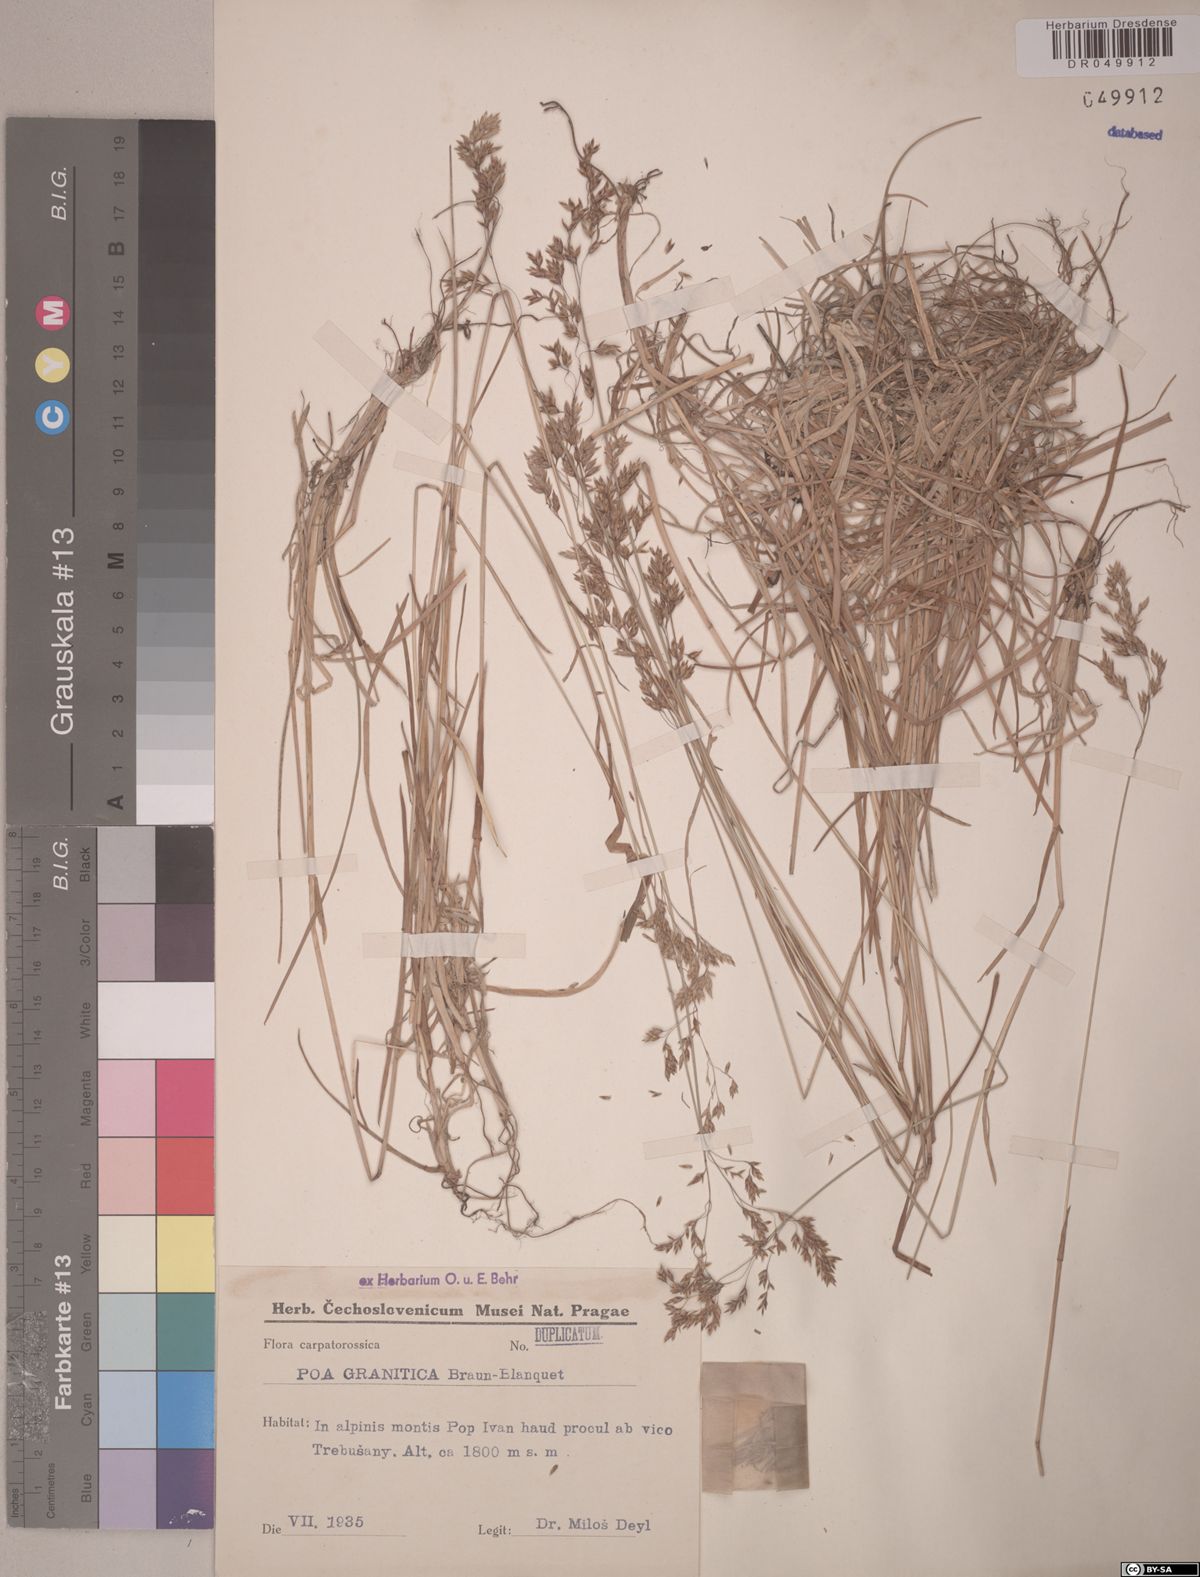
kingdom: Plantae
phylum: Tracheophyta
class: Liliopsida
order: Poales
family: Poaceae
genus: Poa
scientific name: Poa granitica
